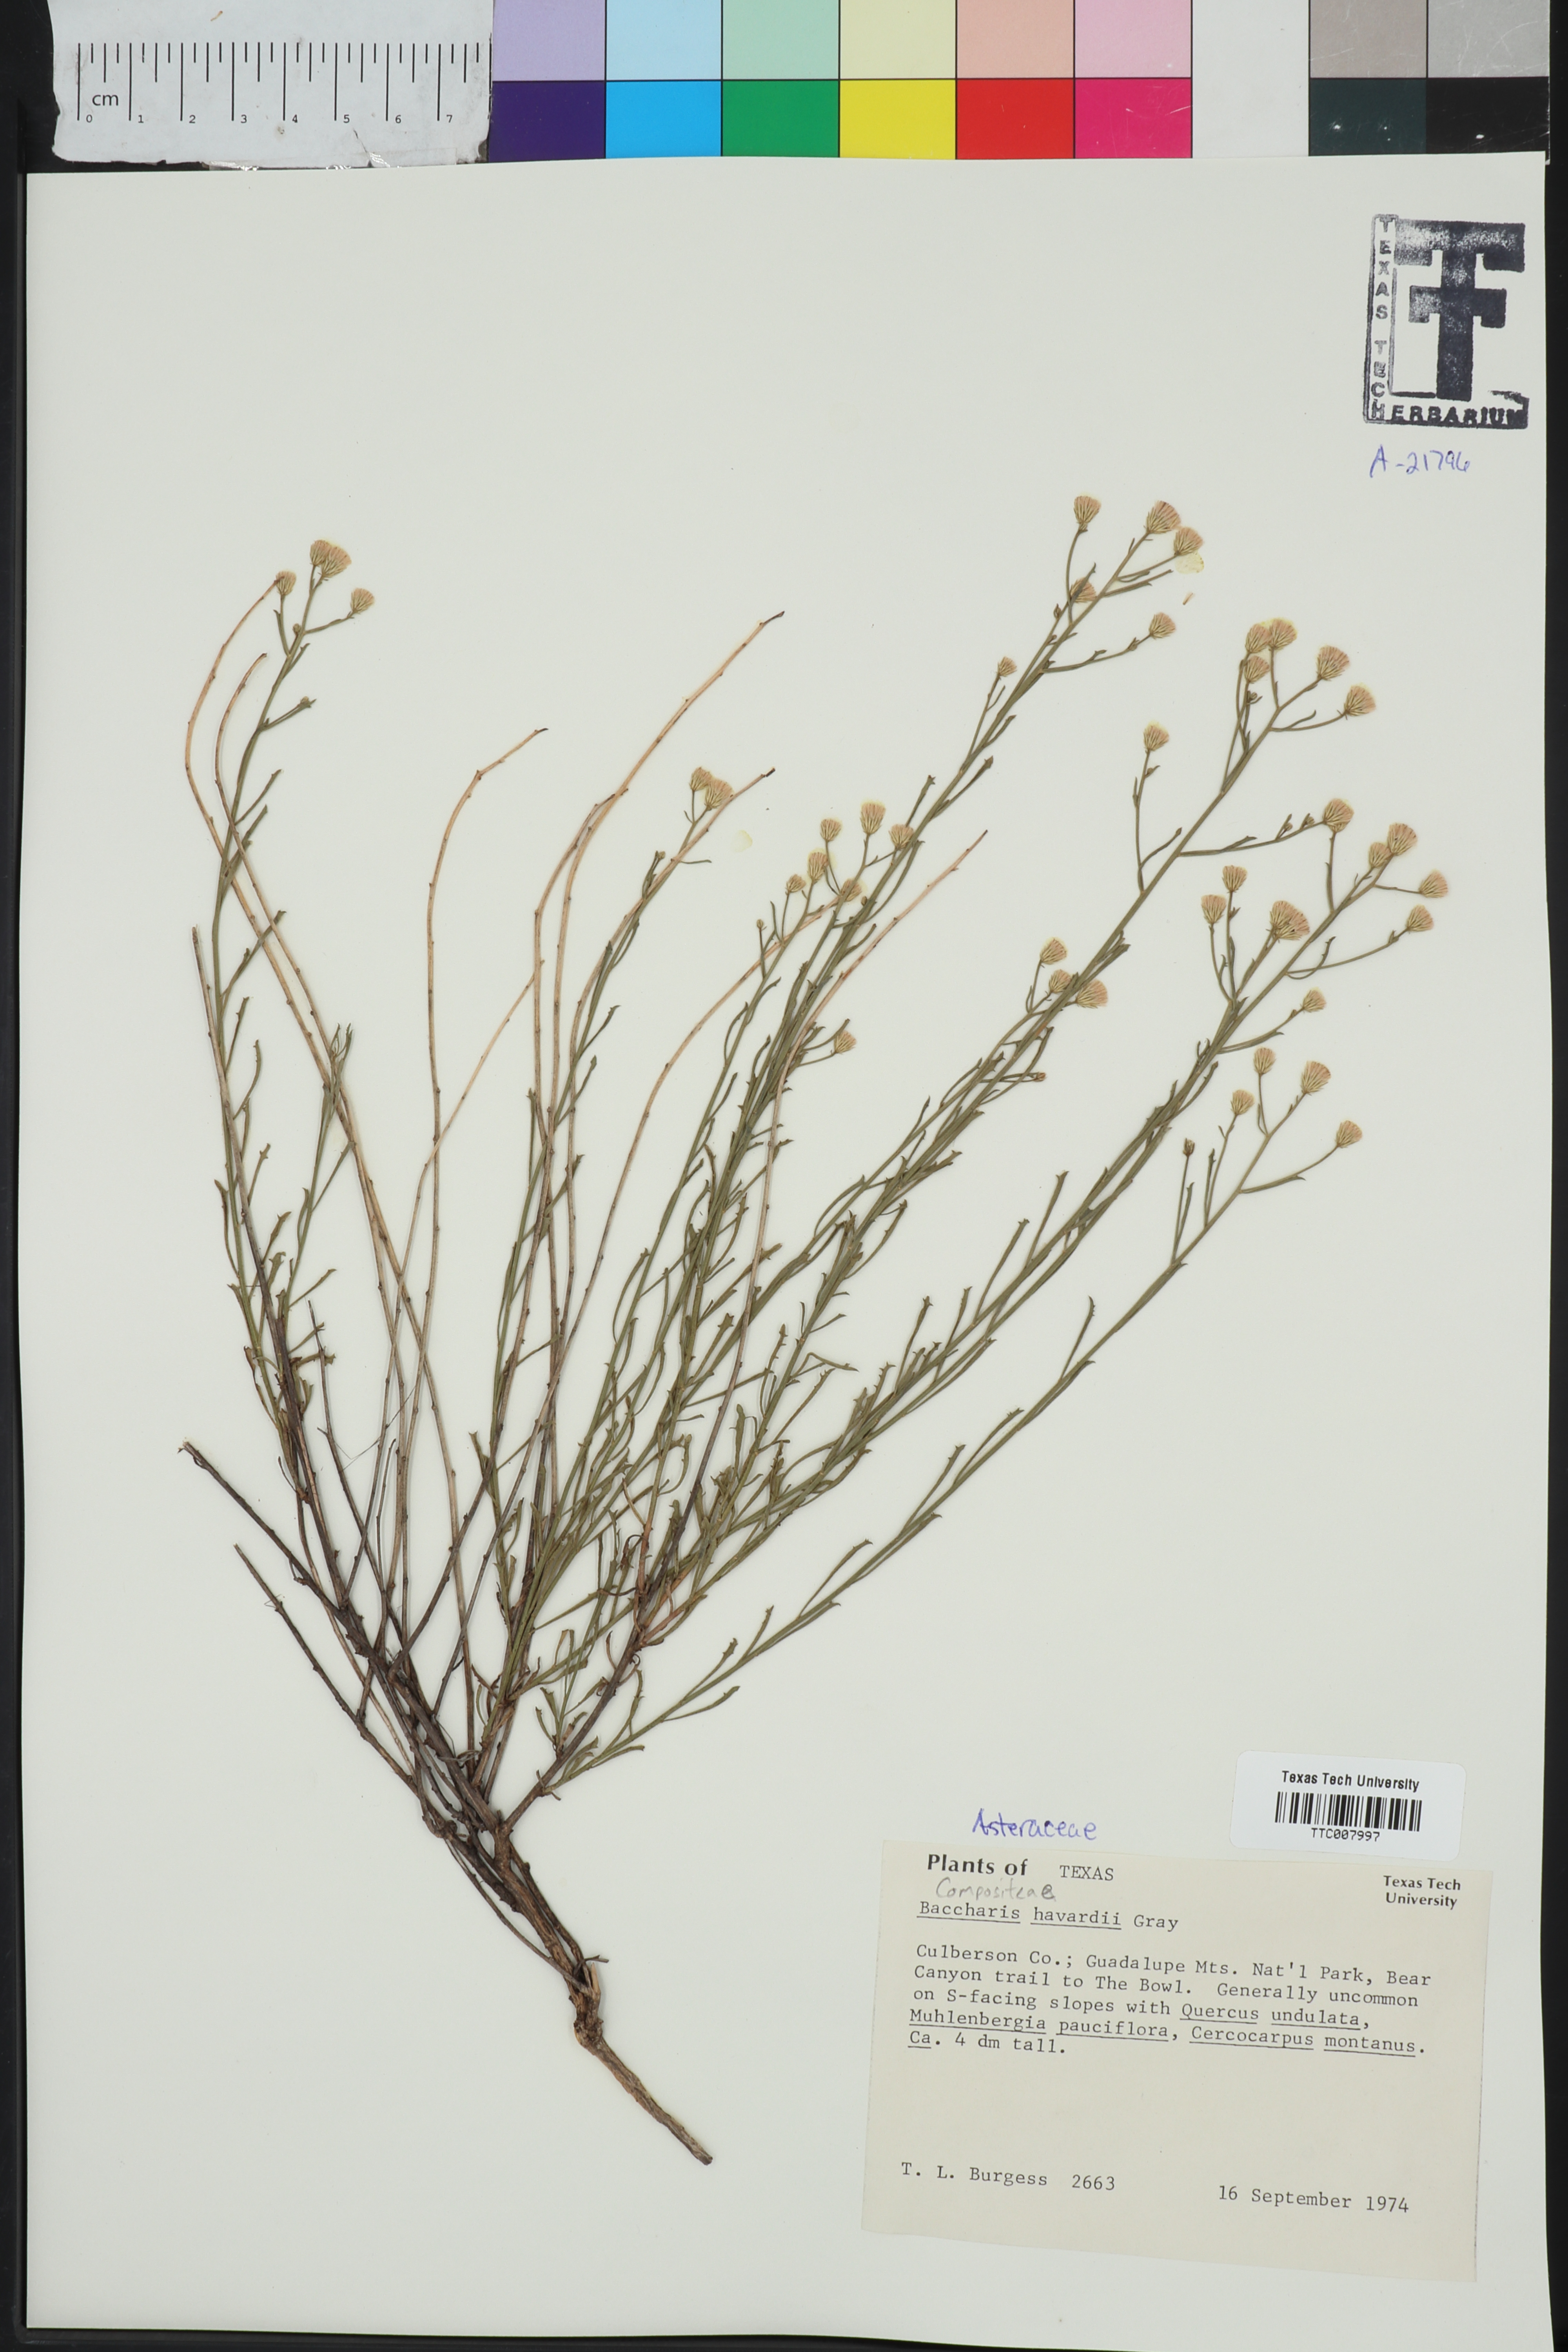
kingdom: Plantae
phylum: Tracheophyta
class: Magnoliopsida
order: Asterales
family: Asteraceae
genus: Baccharis
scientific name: Baccharis havardii
